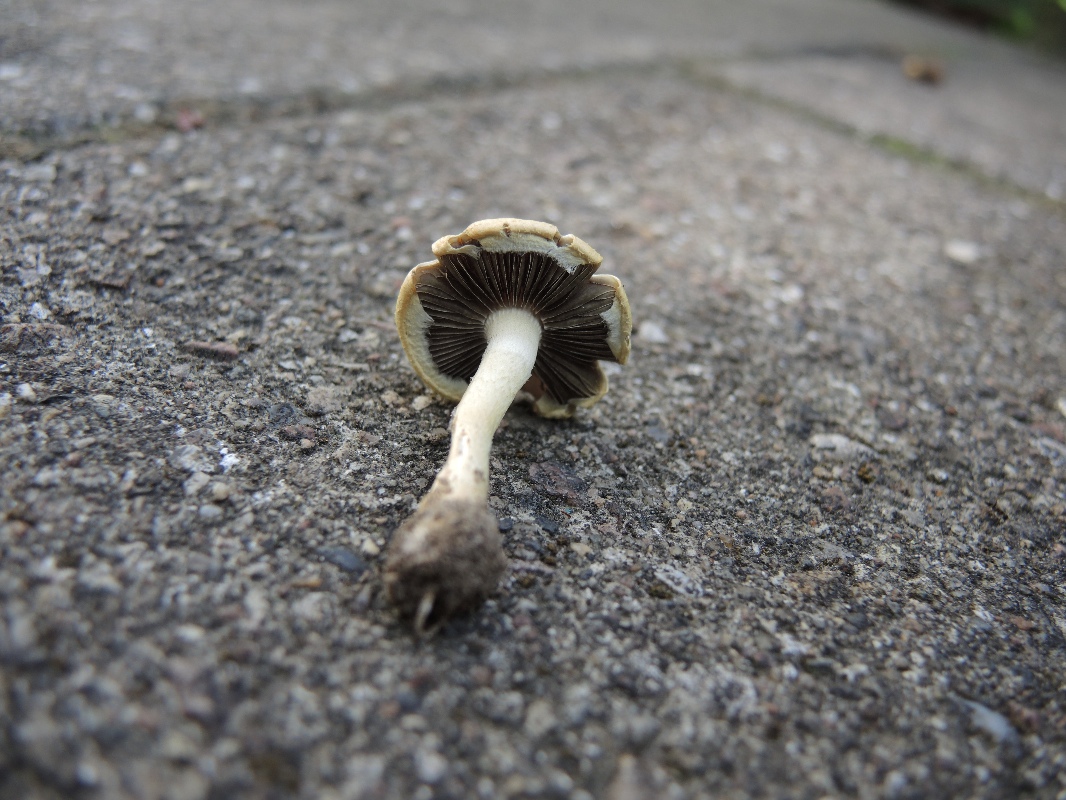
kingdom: Fungi
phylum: Basidiomycota
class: Agaricomycetes
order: Agaricales
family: Strophariaceae
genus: Leratiomyces
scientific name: Leratiomyces percevalii
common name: træflis-bredblad
